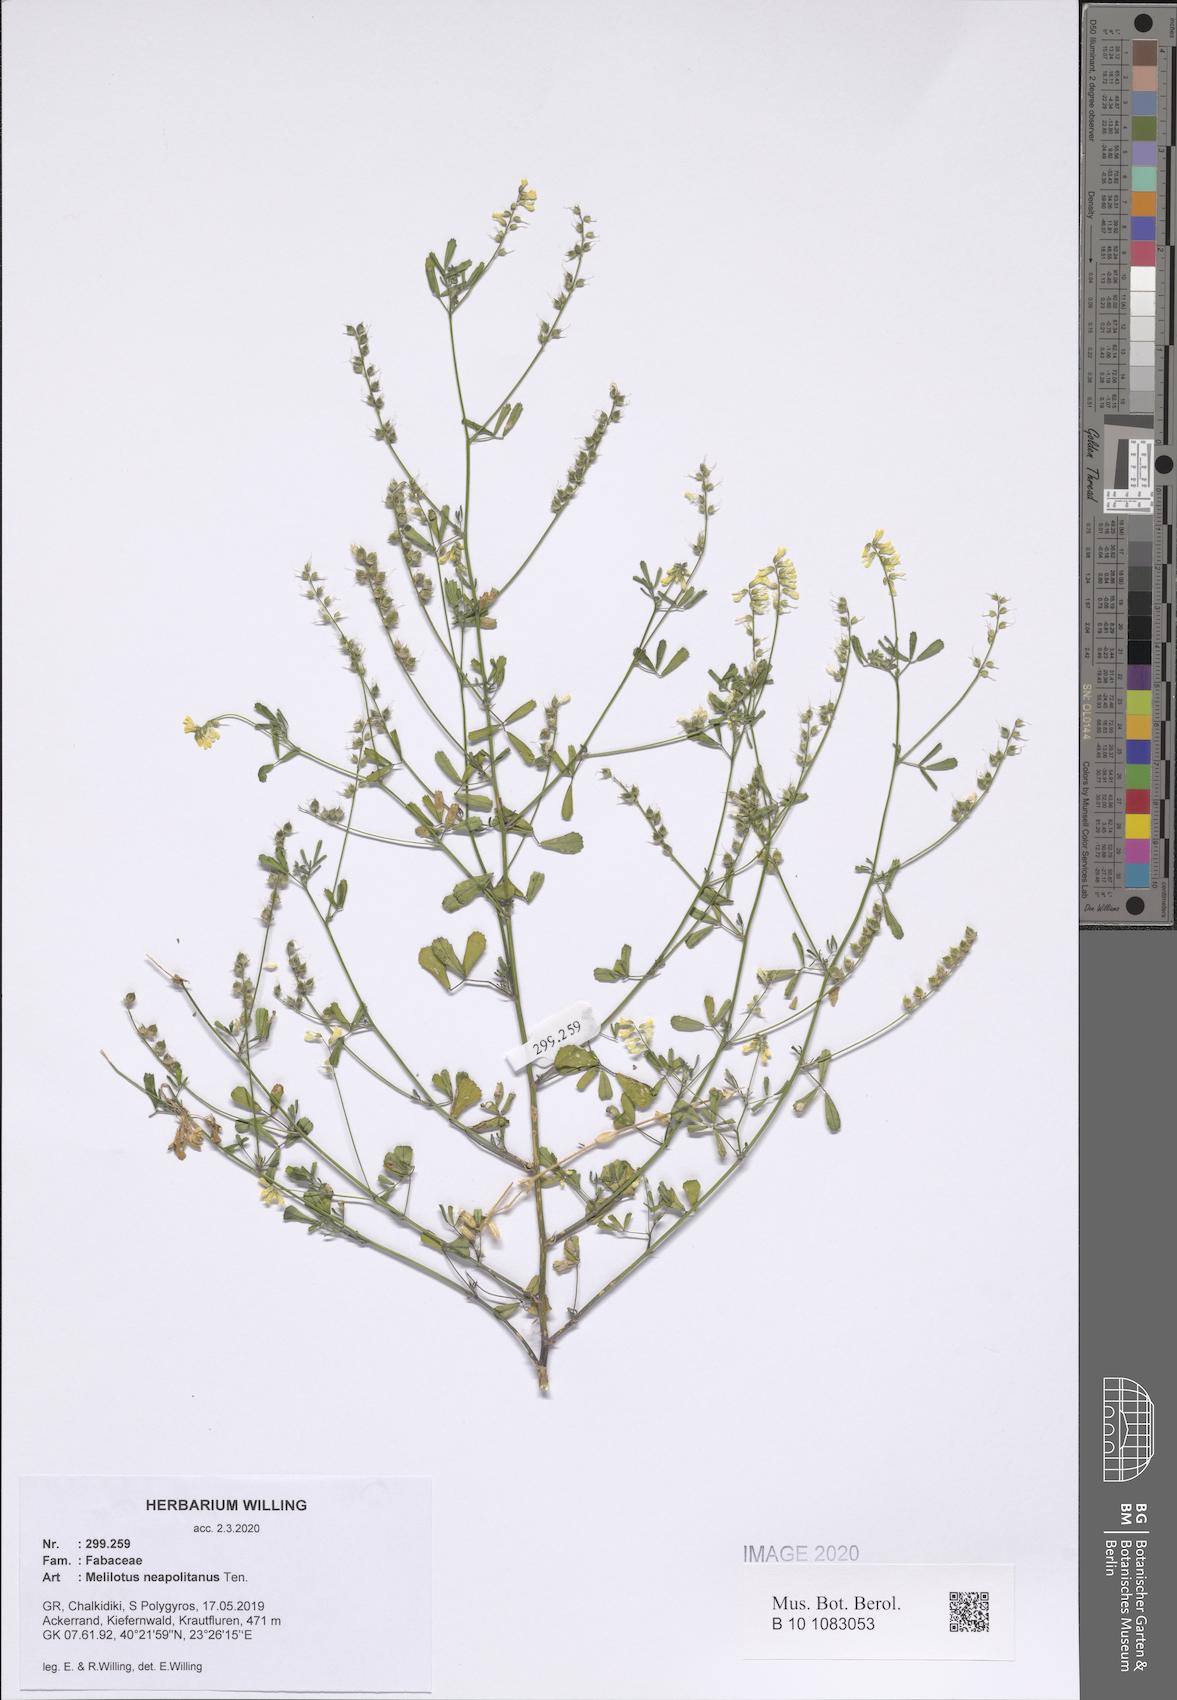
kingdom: Plantae
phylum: Tracheophyta
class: Magnoliopsida
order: Fabales
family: Fabaceae
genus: Melilotus
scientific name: Melilotus neapolitanus
